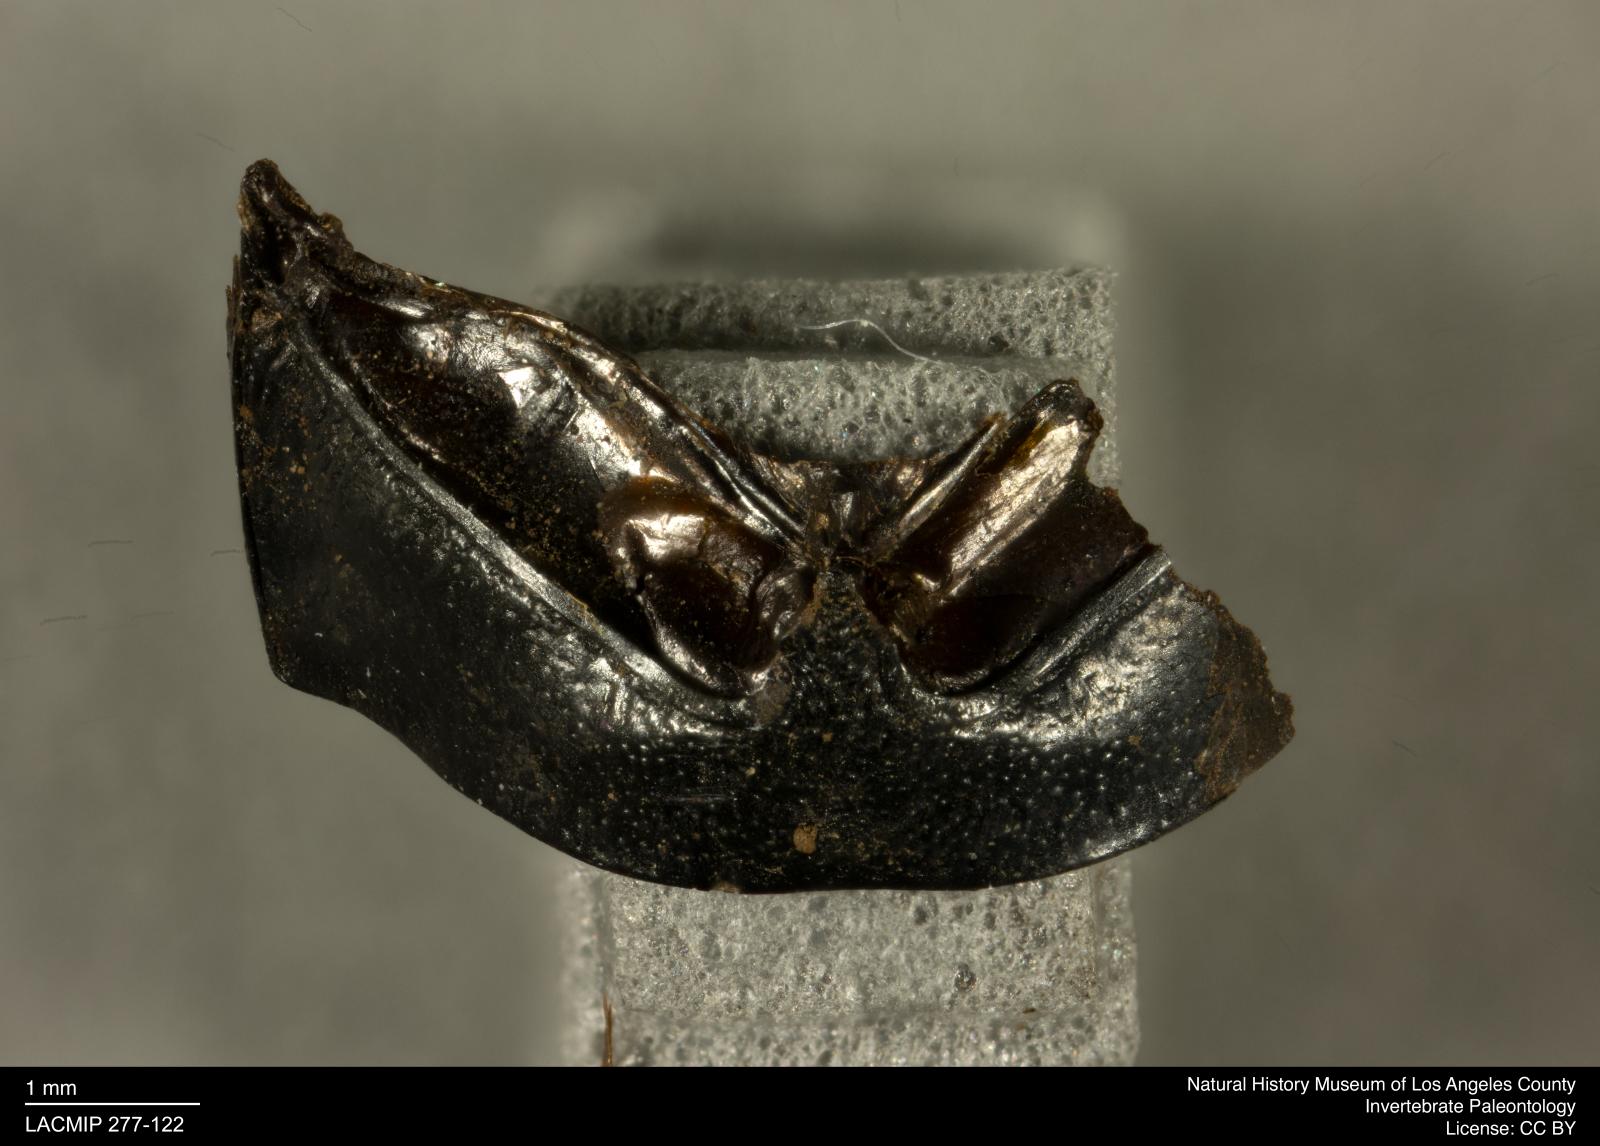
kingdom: Animalia
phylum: Arthropoda
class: Insecta
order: Coleoptera
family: Tenebrionidae
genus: Coniontis
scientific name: Coniontis abdominalis
